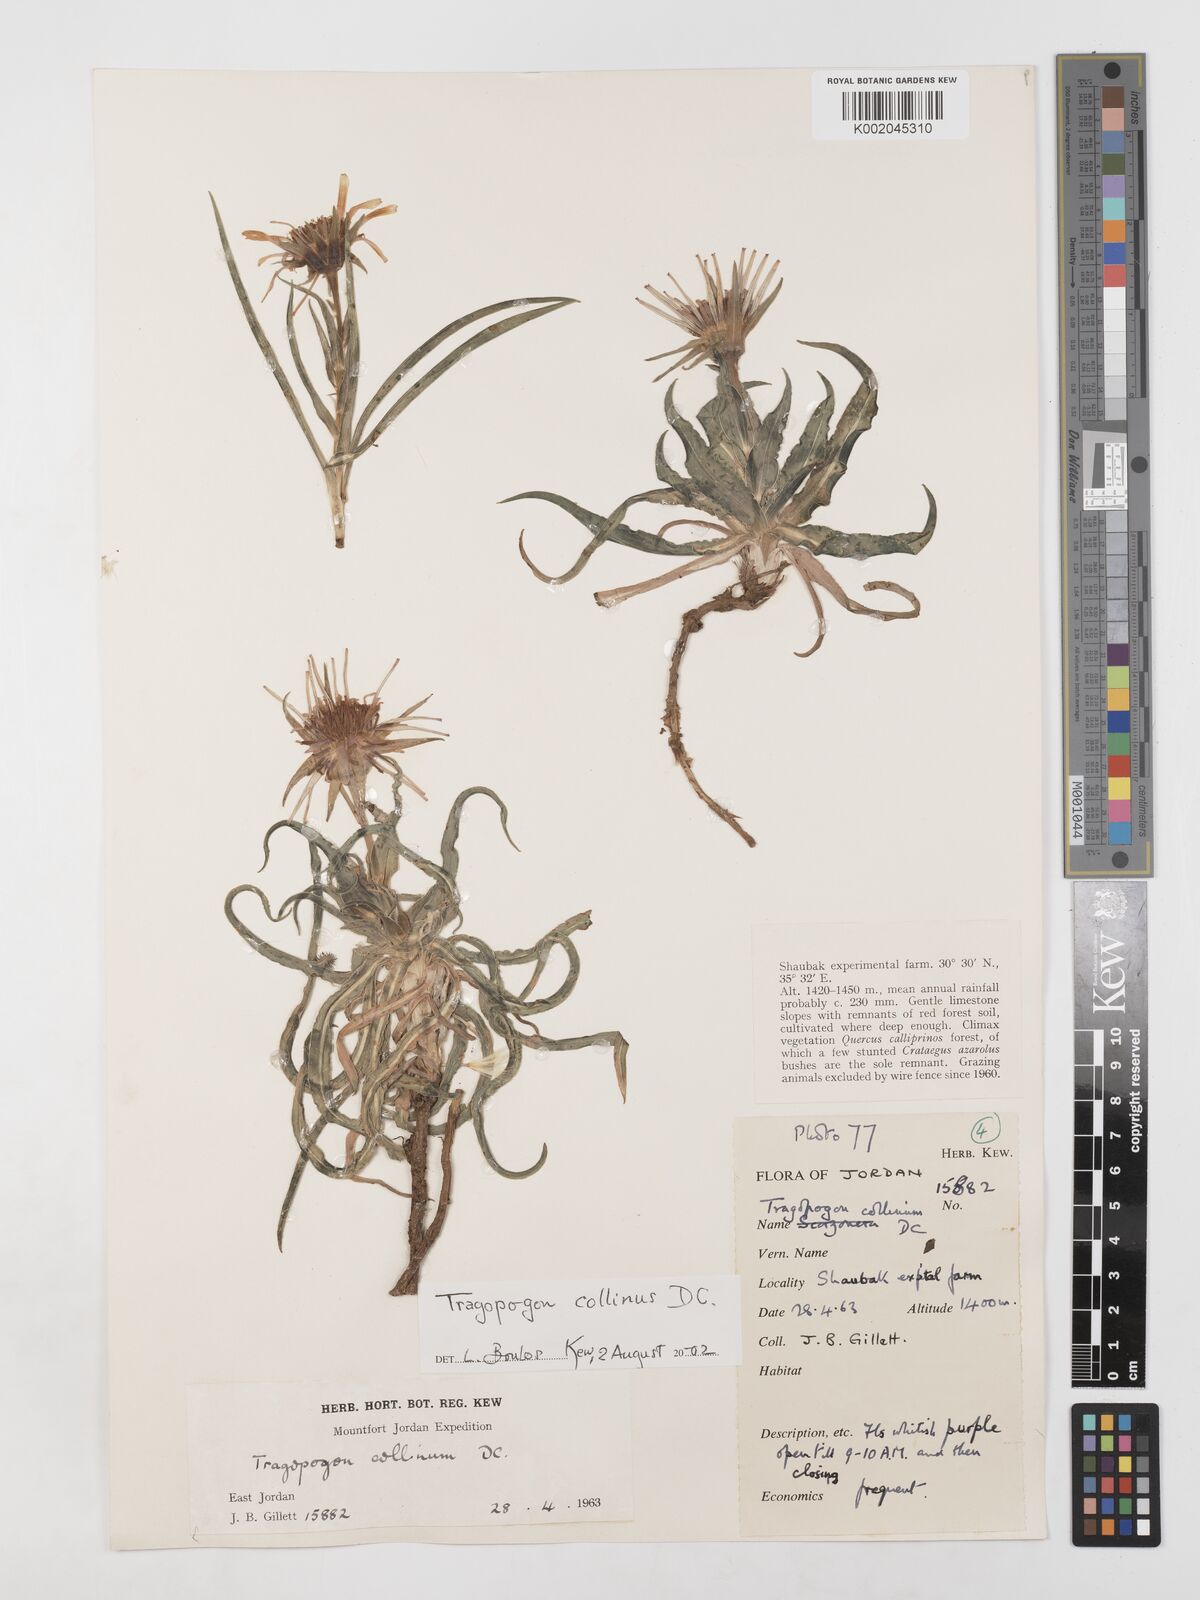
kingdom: Plantae
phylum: Tracheophyta
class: Magnoliopsida
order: Asterales
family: Asteraceae
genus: Tragopogon
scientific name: Tragopogon collinus
